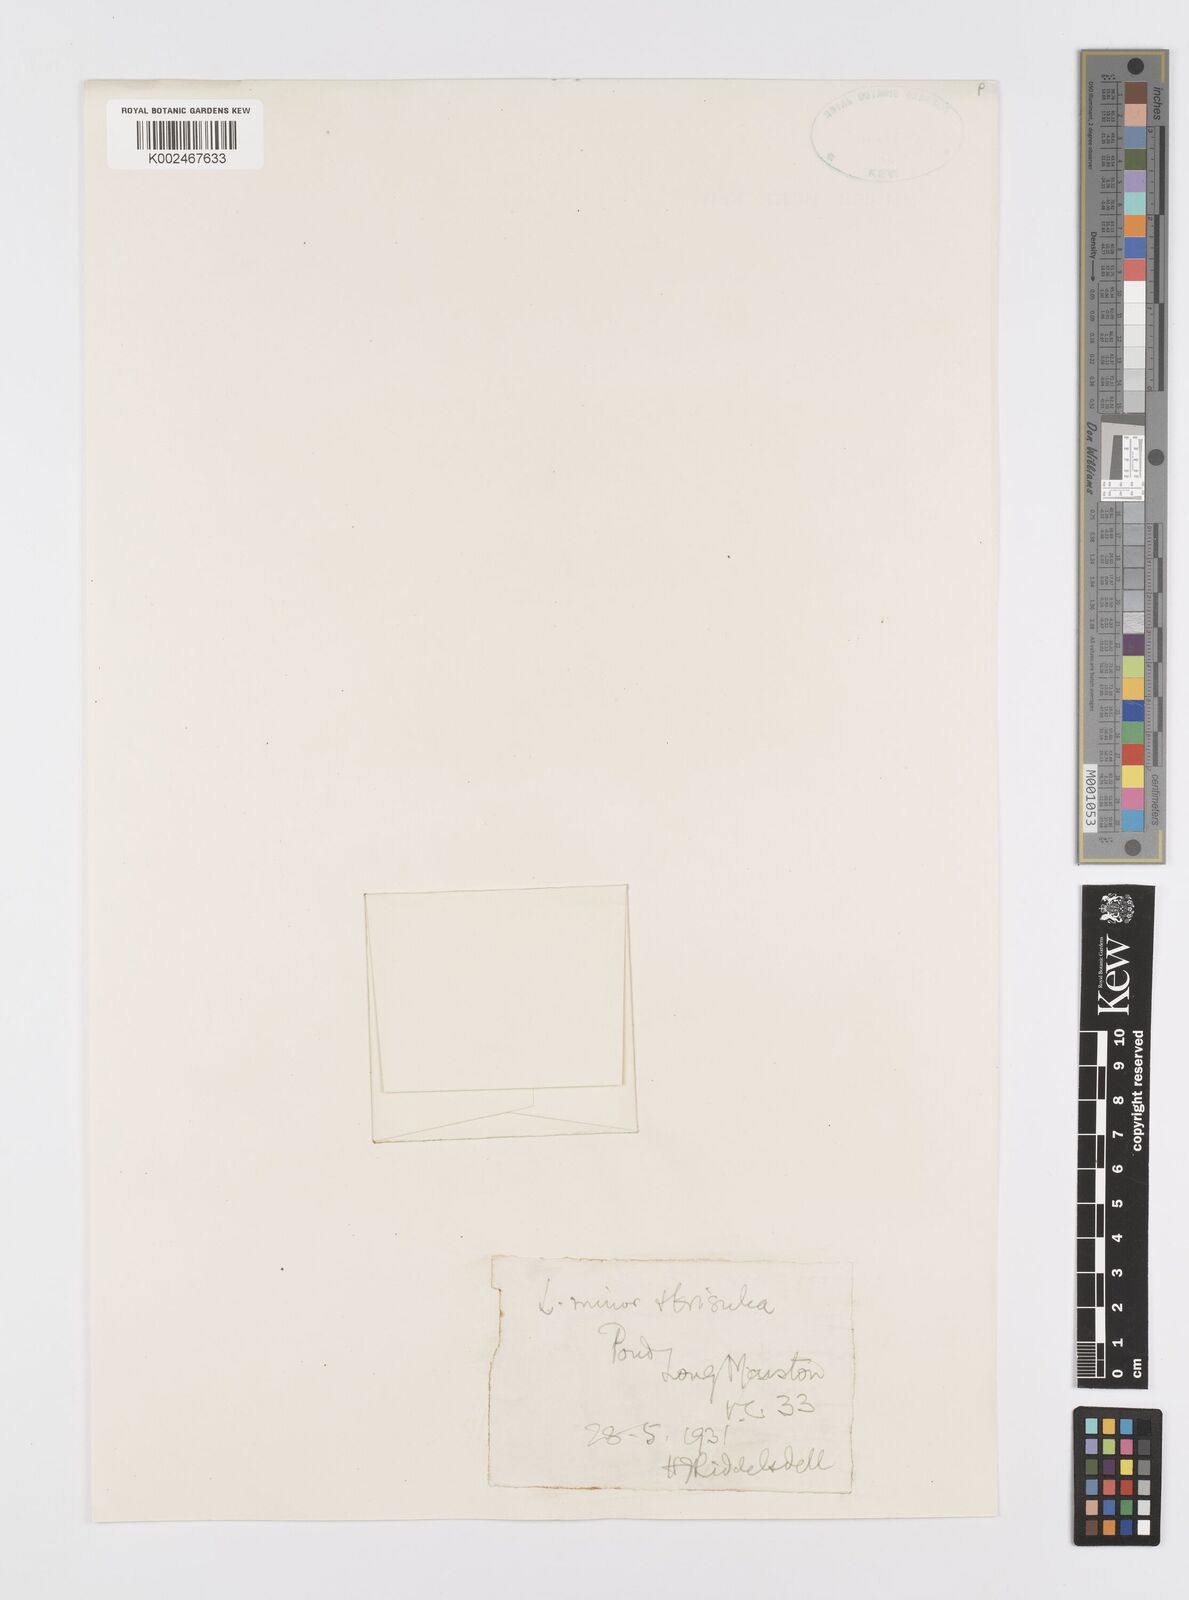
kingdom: Plantae
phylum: Tracheophyta
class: Liliopsida
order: Alismatales
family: Araceae
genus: Lemna
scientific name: Lemna trisulca
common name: Ivy-leaved duckweed
